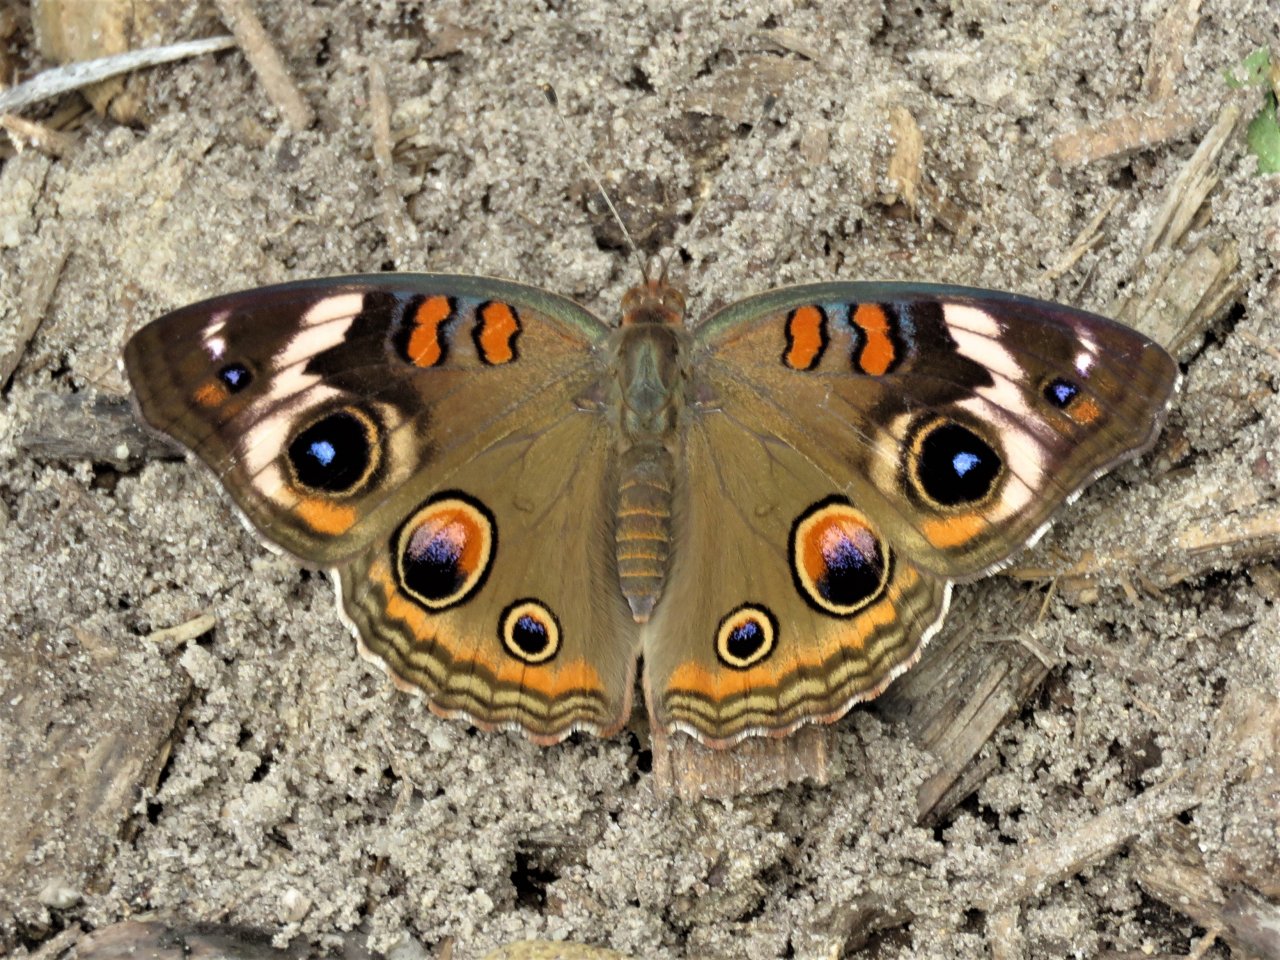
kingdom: Animalia
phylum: Arthropoda
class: Insecta
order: Lepidoptera
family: Nymphalidae
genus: Junonia
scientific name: Junonia coenia
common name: Common Buckeye
